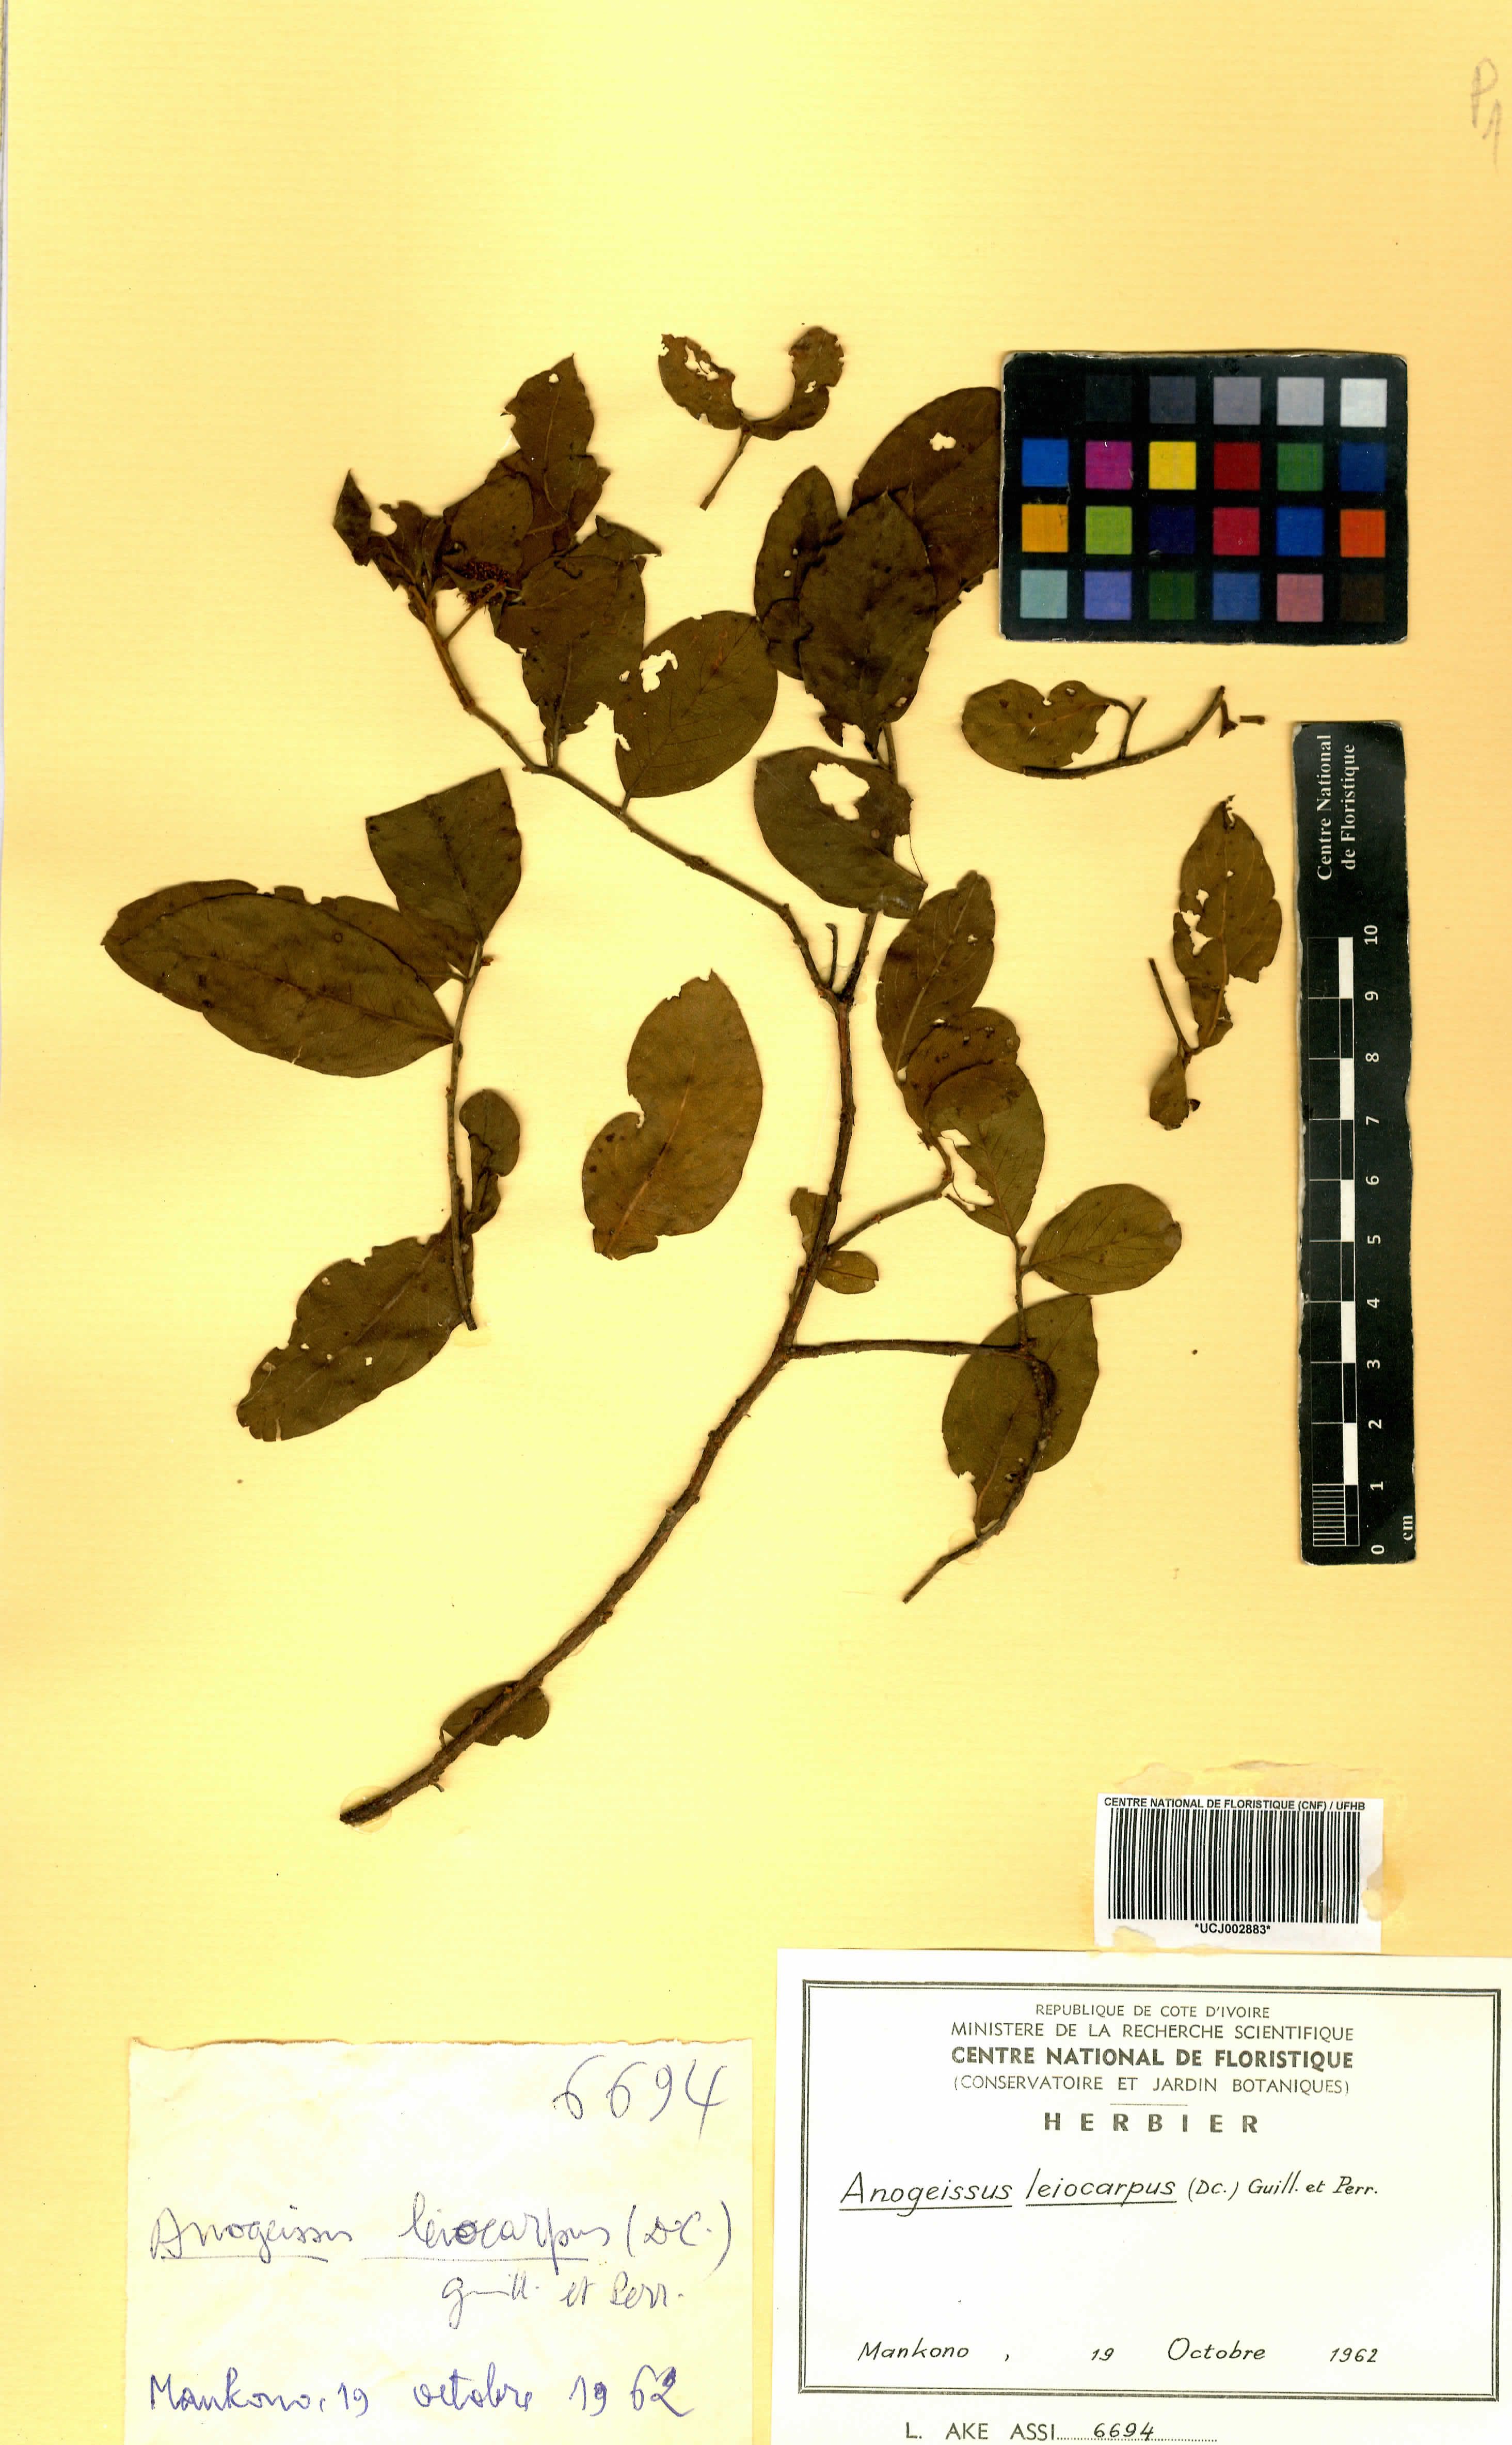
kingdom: Plantae
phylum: Tracheophyta
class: Magnoliopsida
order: Myrtales
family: Combretaceae
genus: Terminalia
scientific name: Terminalia leiocarpa
